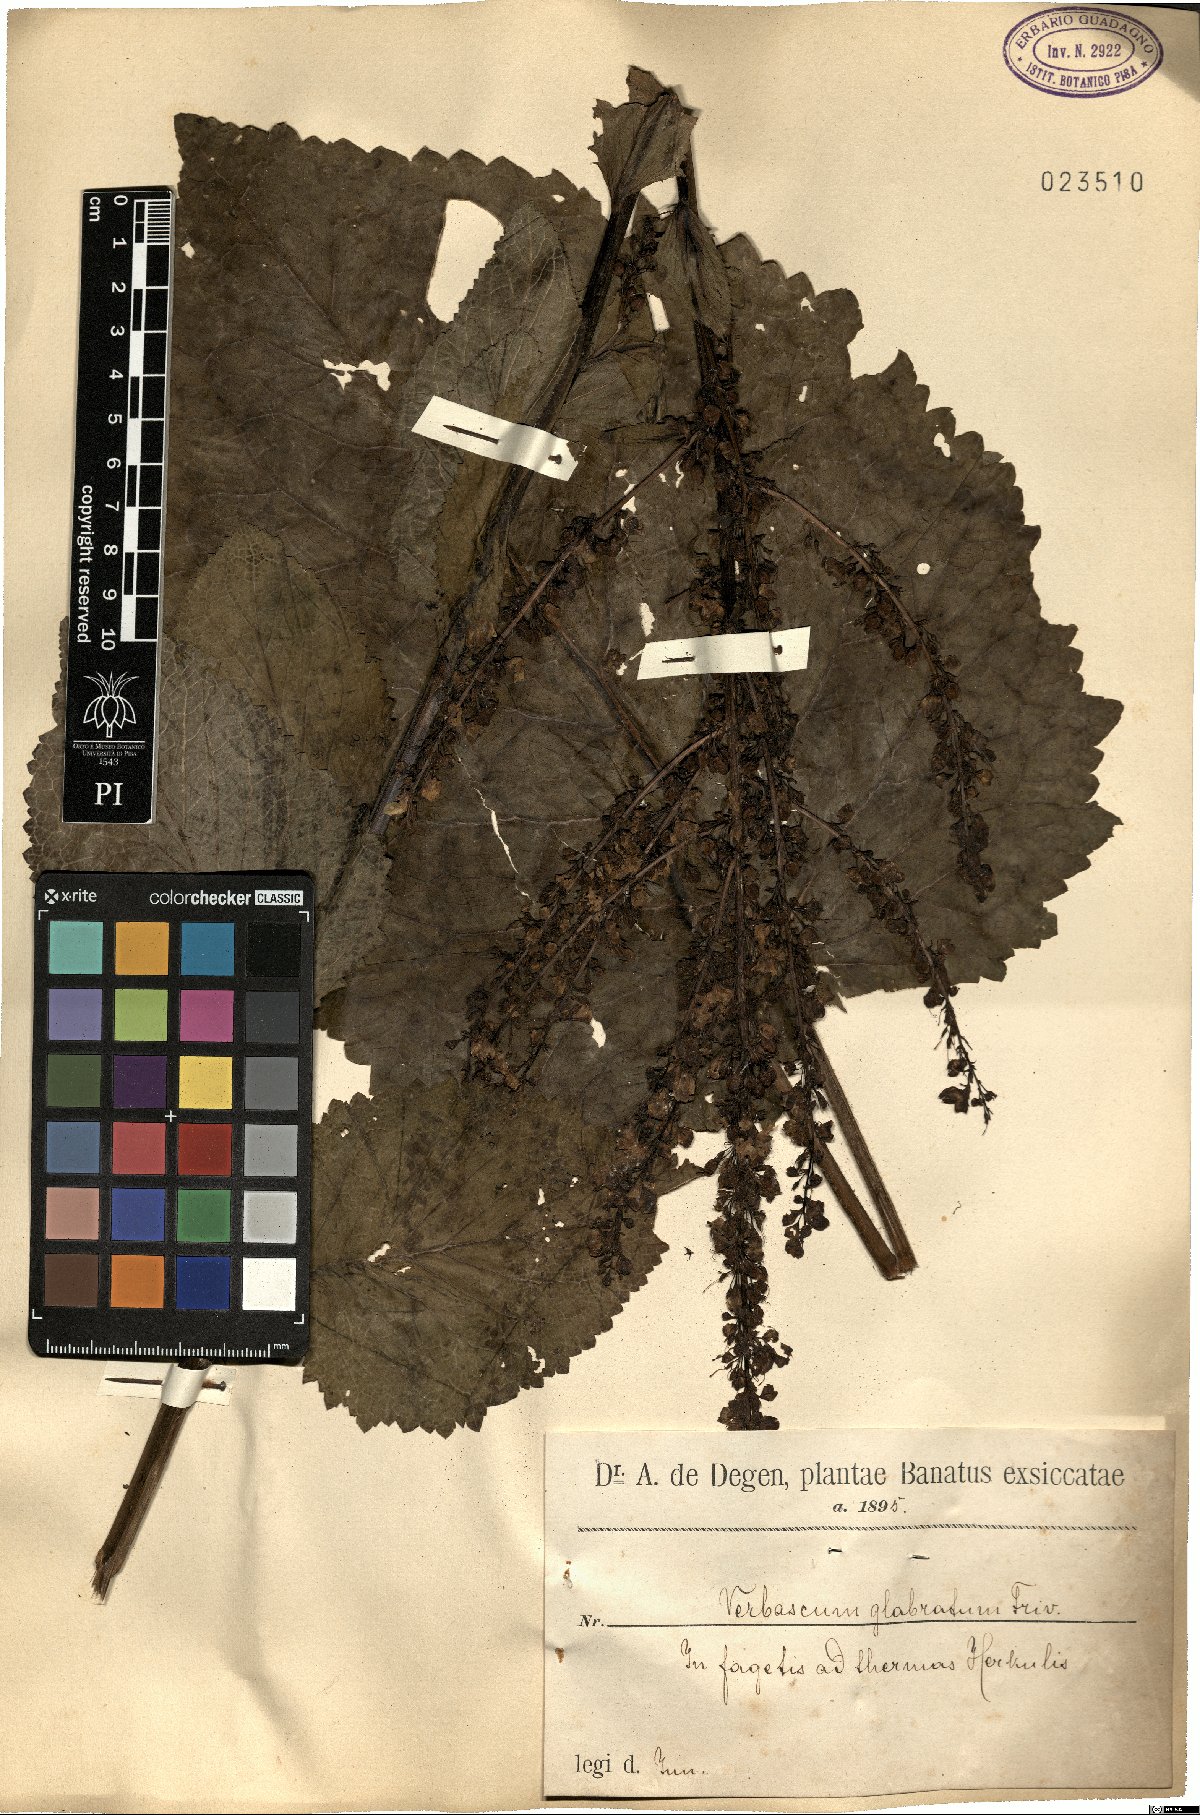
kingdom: Plantae
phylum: Tracheophyta
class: Magnoliopsida
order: Lamiales
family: Scrophulariaceae
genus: Verbascum
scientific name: Verbascum glabratum
